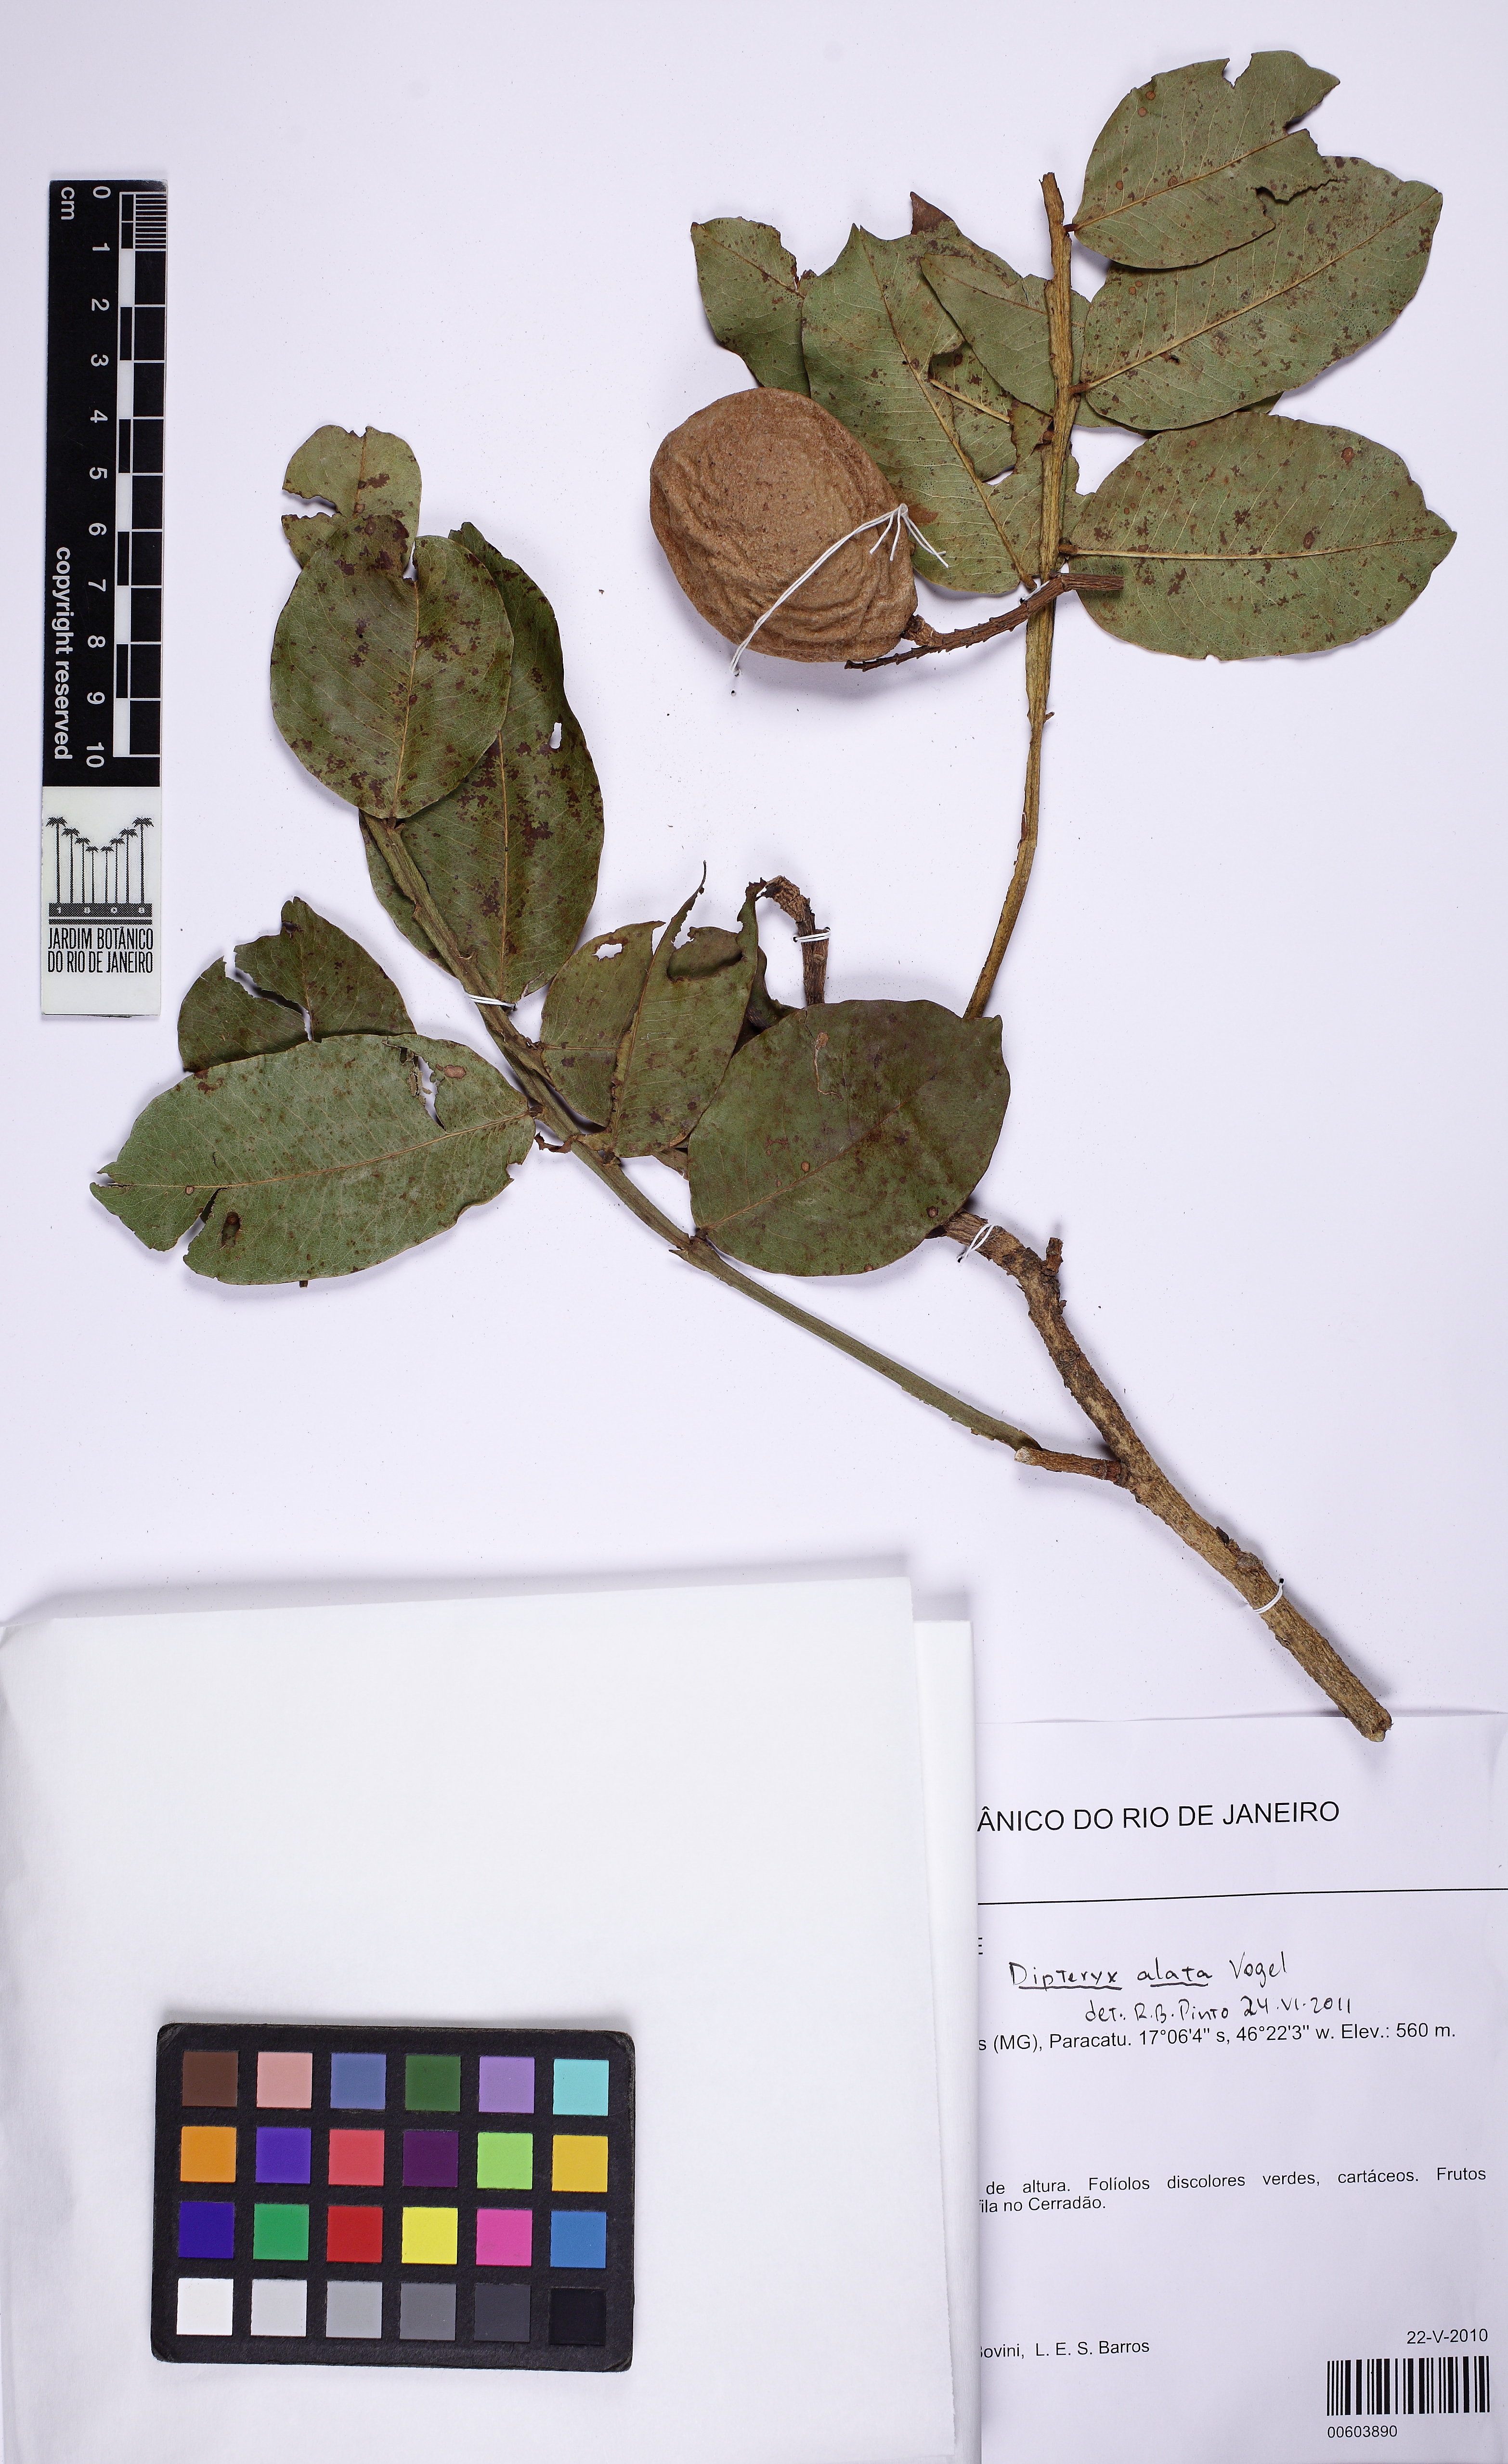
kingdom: Plantae
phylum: Tracheophyta
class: Magnoliopsida
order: Fabales
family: Fabaceae
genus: Dipteryx
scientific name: Dipteryx alata
